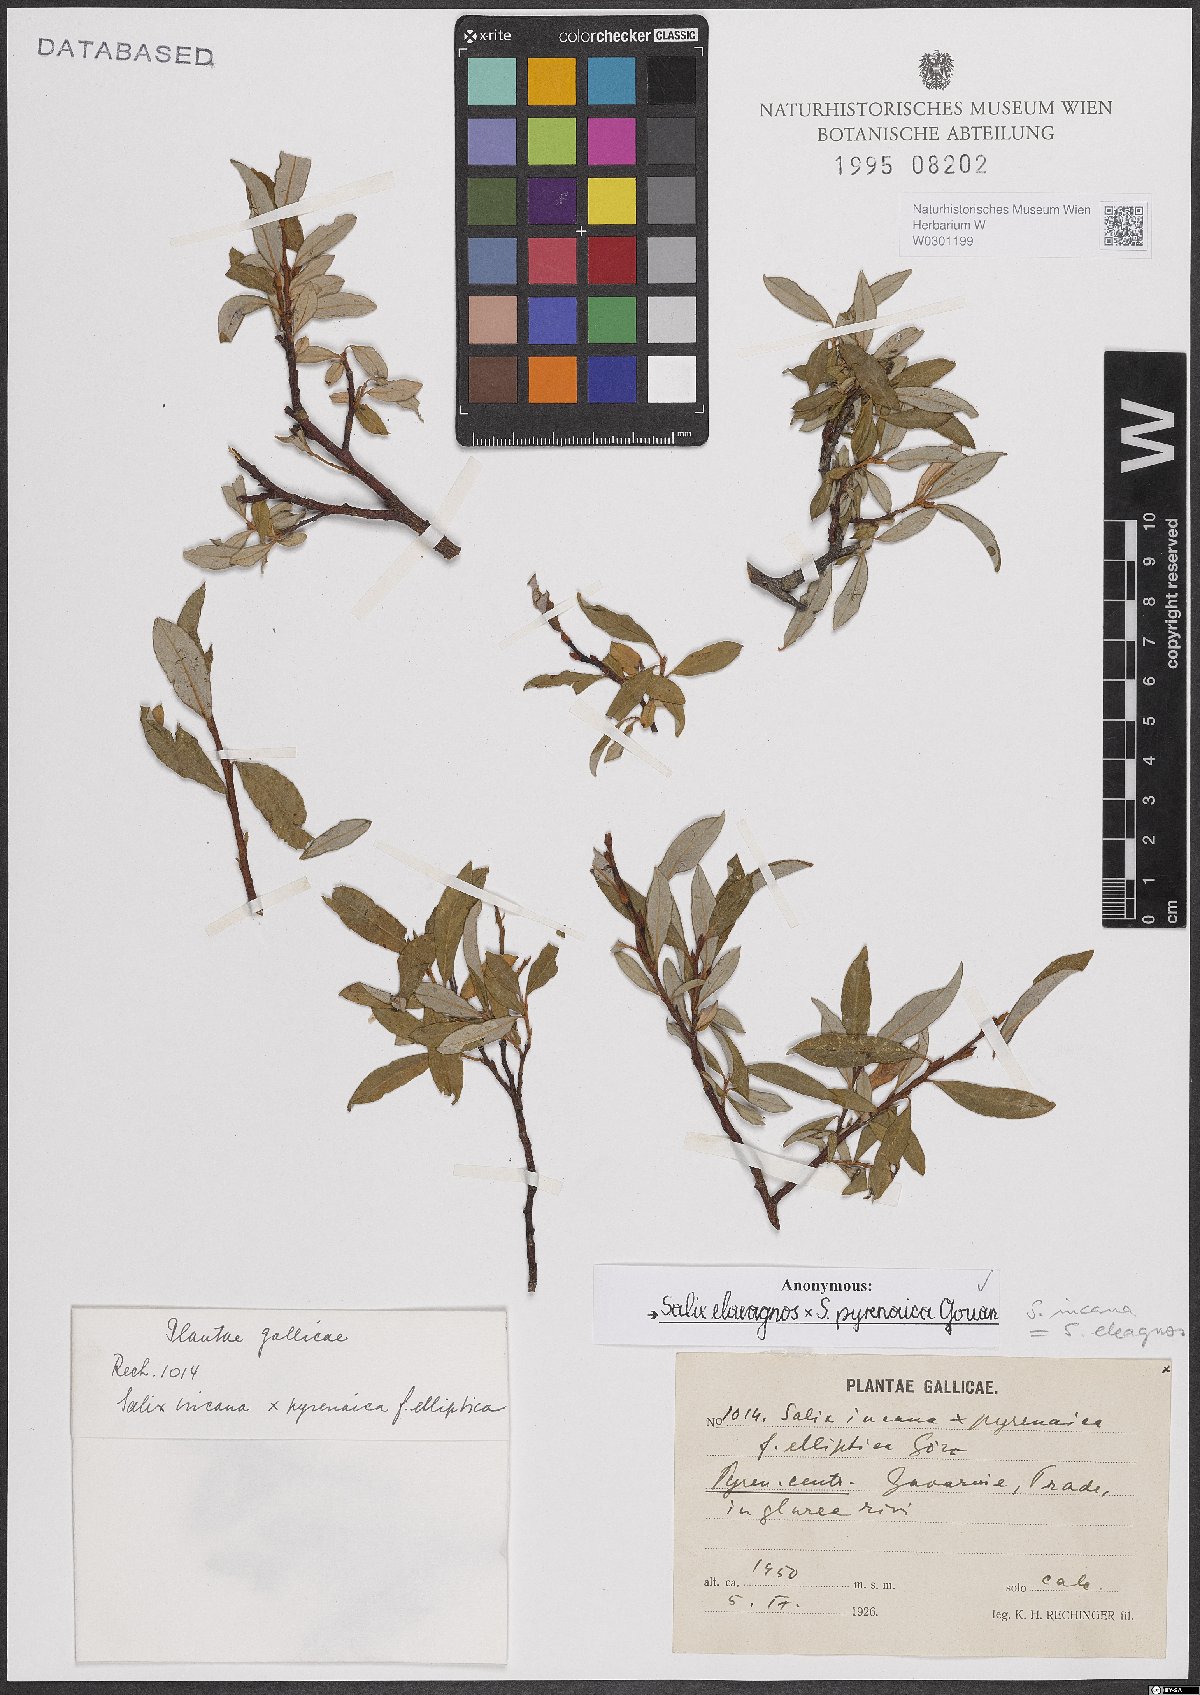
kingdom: Plantae
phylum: Tracheophyta
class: Magnoliopsida
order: Malpighiales
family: Salicaceae
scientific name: Salicaceae
